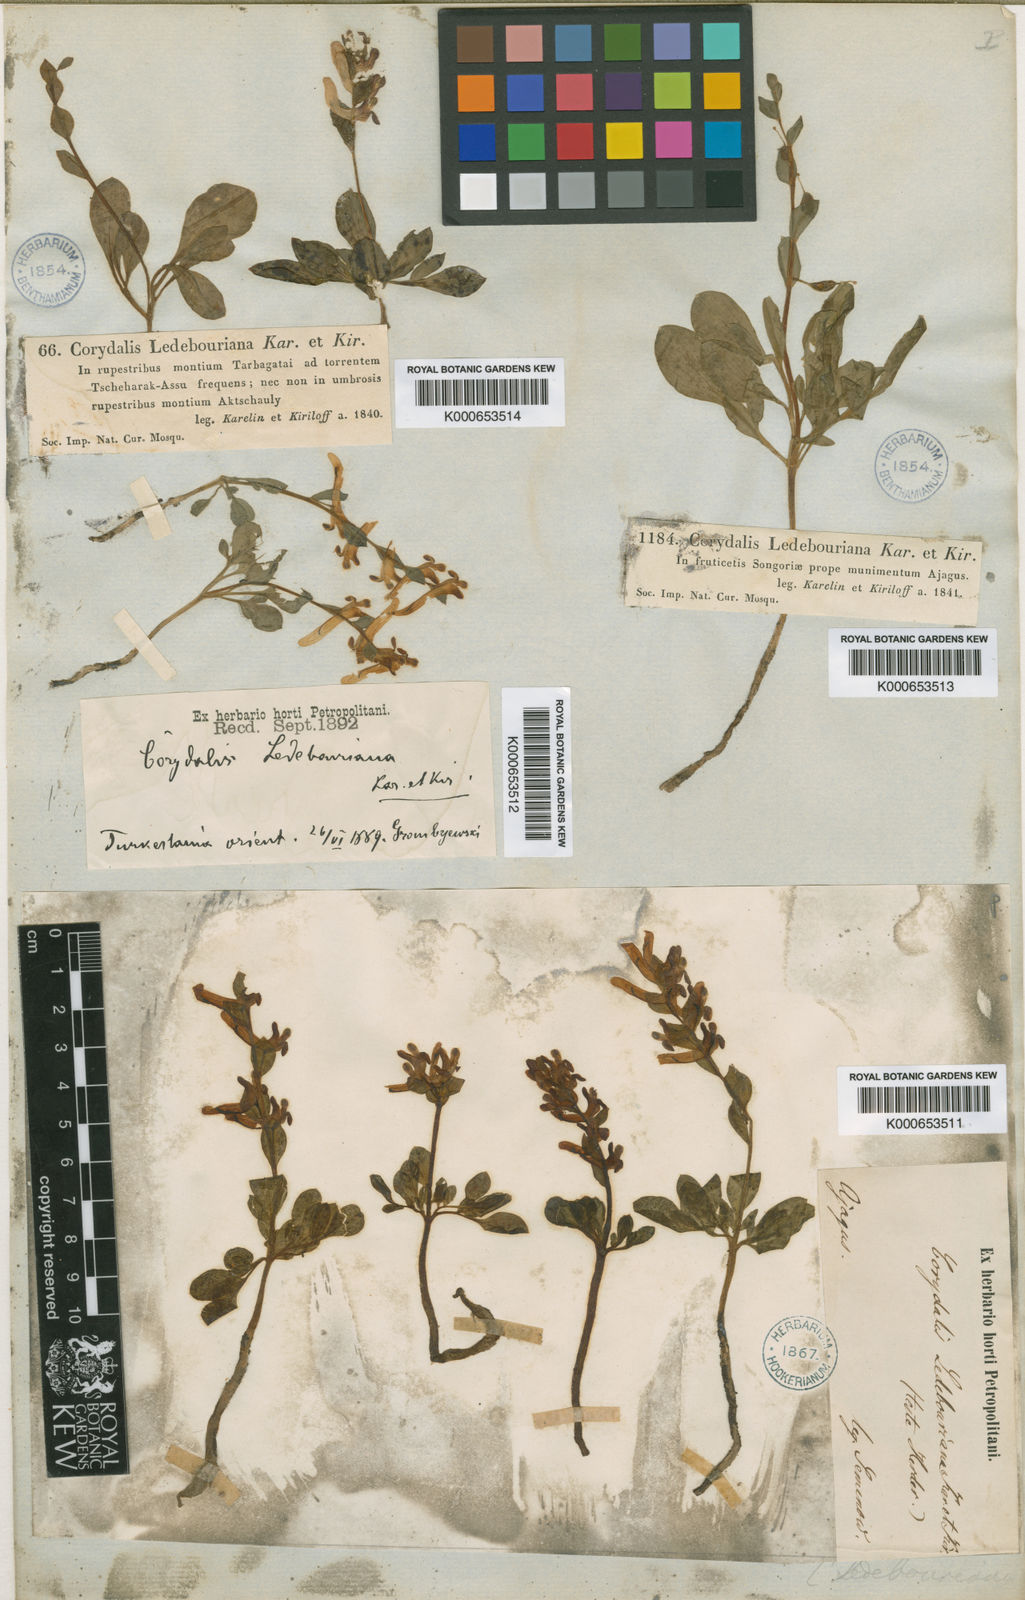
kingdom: Plantae
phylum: Tracheophyta
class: Magnoliopsida
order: Ranunculales
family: Papaveraceae
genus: Corydalis
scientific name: Corydalis ledebouriana
